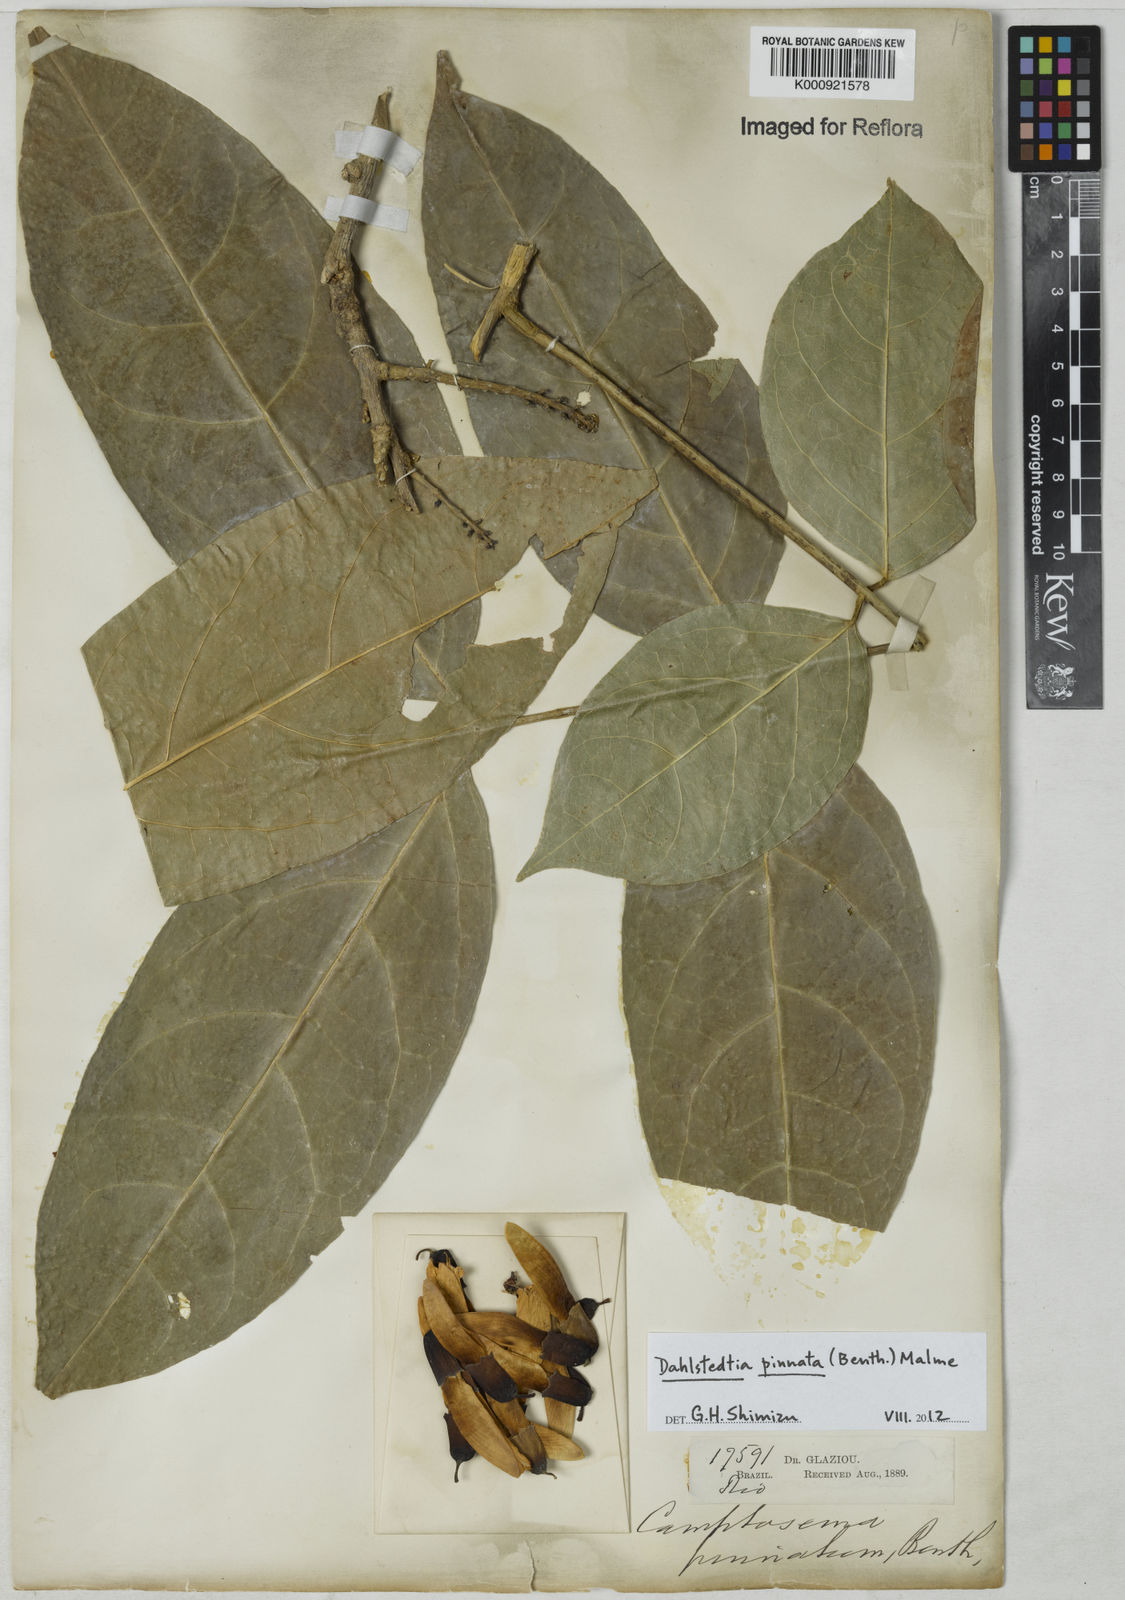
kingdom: Plantae
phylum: Tracheophyta
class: Magnoliopsida
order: Fabales
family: Fabaceae
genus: Dahlstedtia
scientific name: Dahlstedtia pinnata
